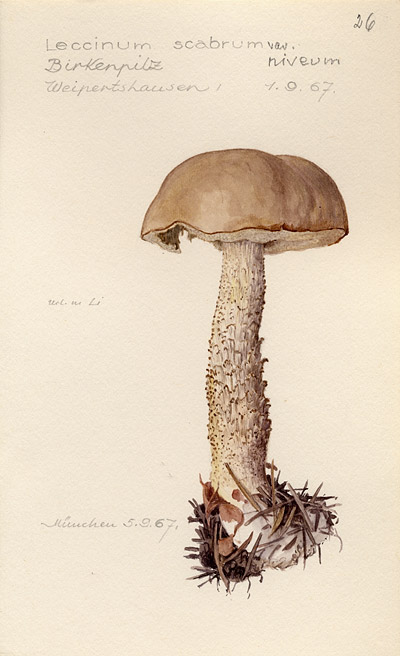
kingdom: Fungi
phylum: Basidiomycota
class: Agaricomycetes
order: Boletales
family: Boletaceae
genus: Leccinum
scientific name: Leccinum scabrum
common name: Blushing bolete
